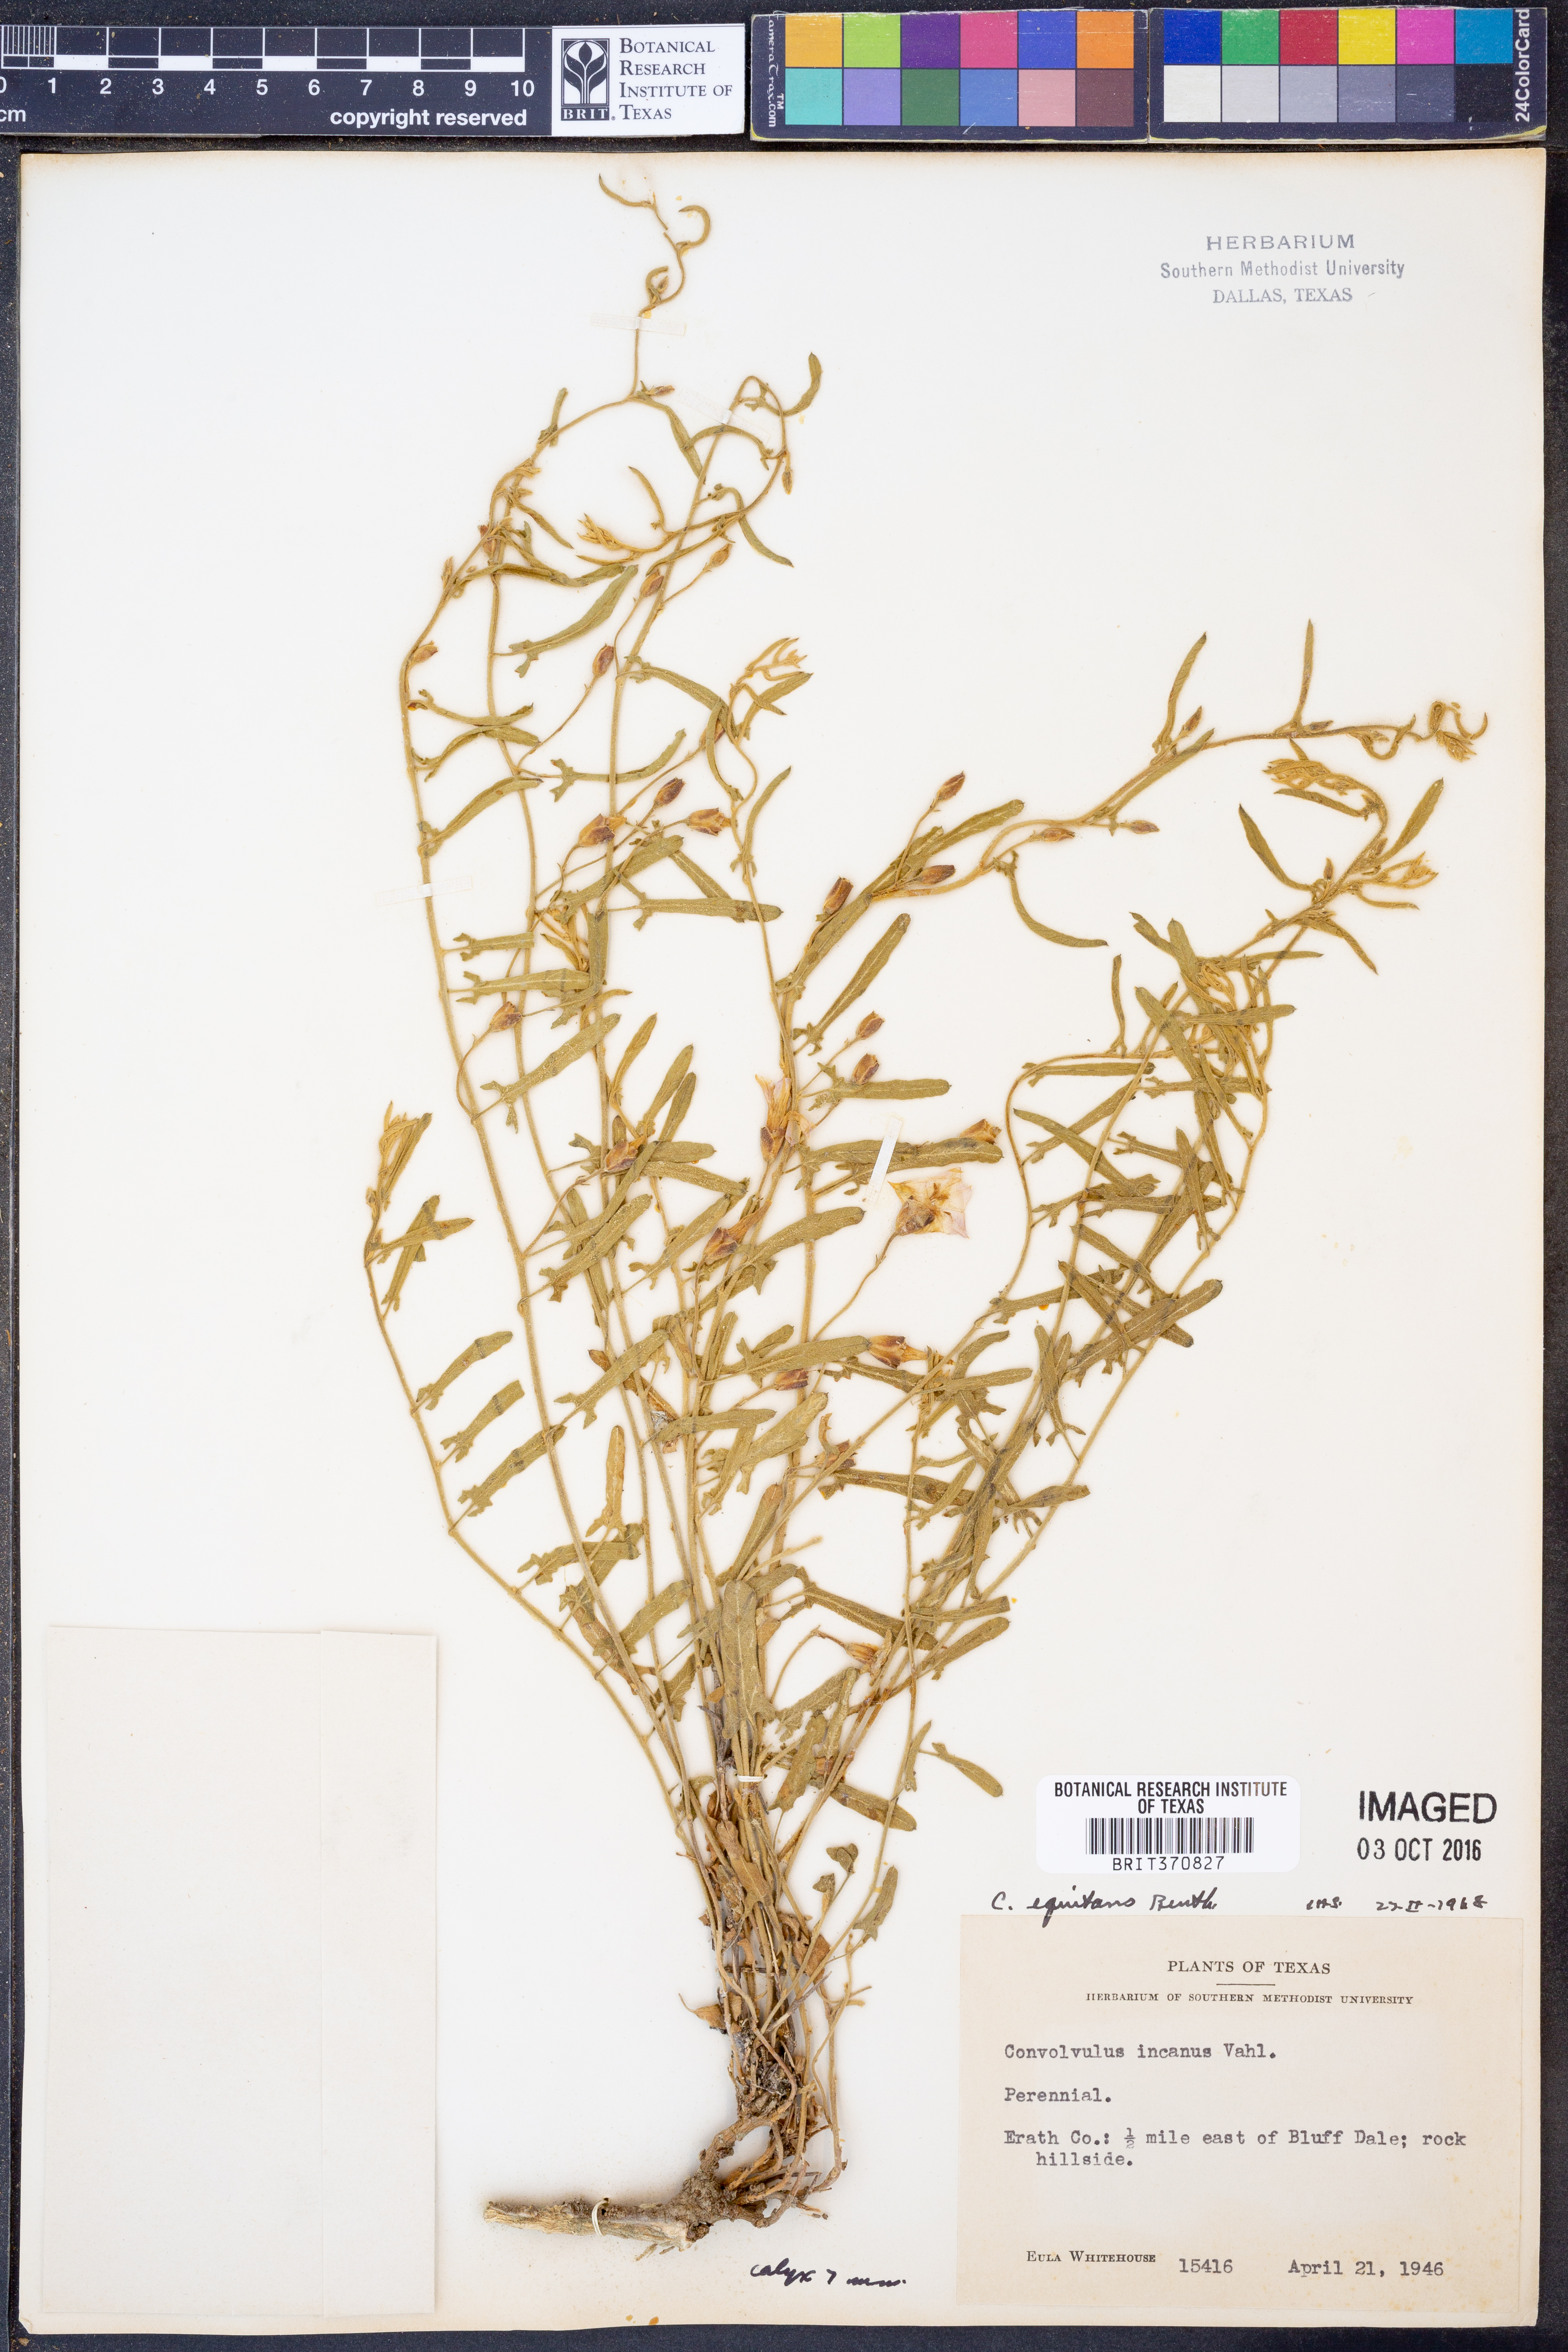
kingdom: Plantae
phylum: Tracheophyta
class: Magnoliopsida
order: Solanales
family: Convolvulaceae
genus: Convolvulus
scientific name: Convolvulus equitans
